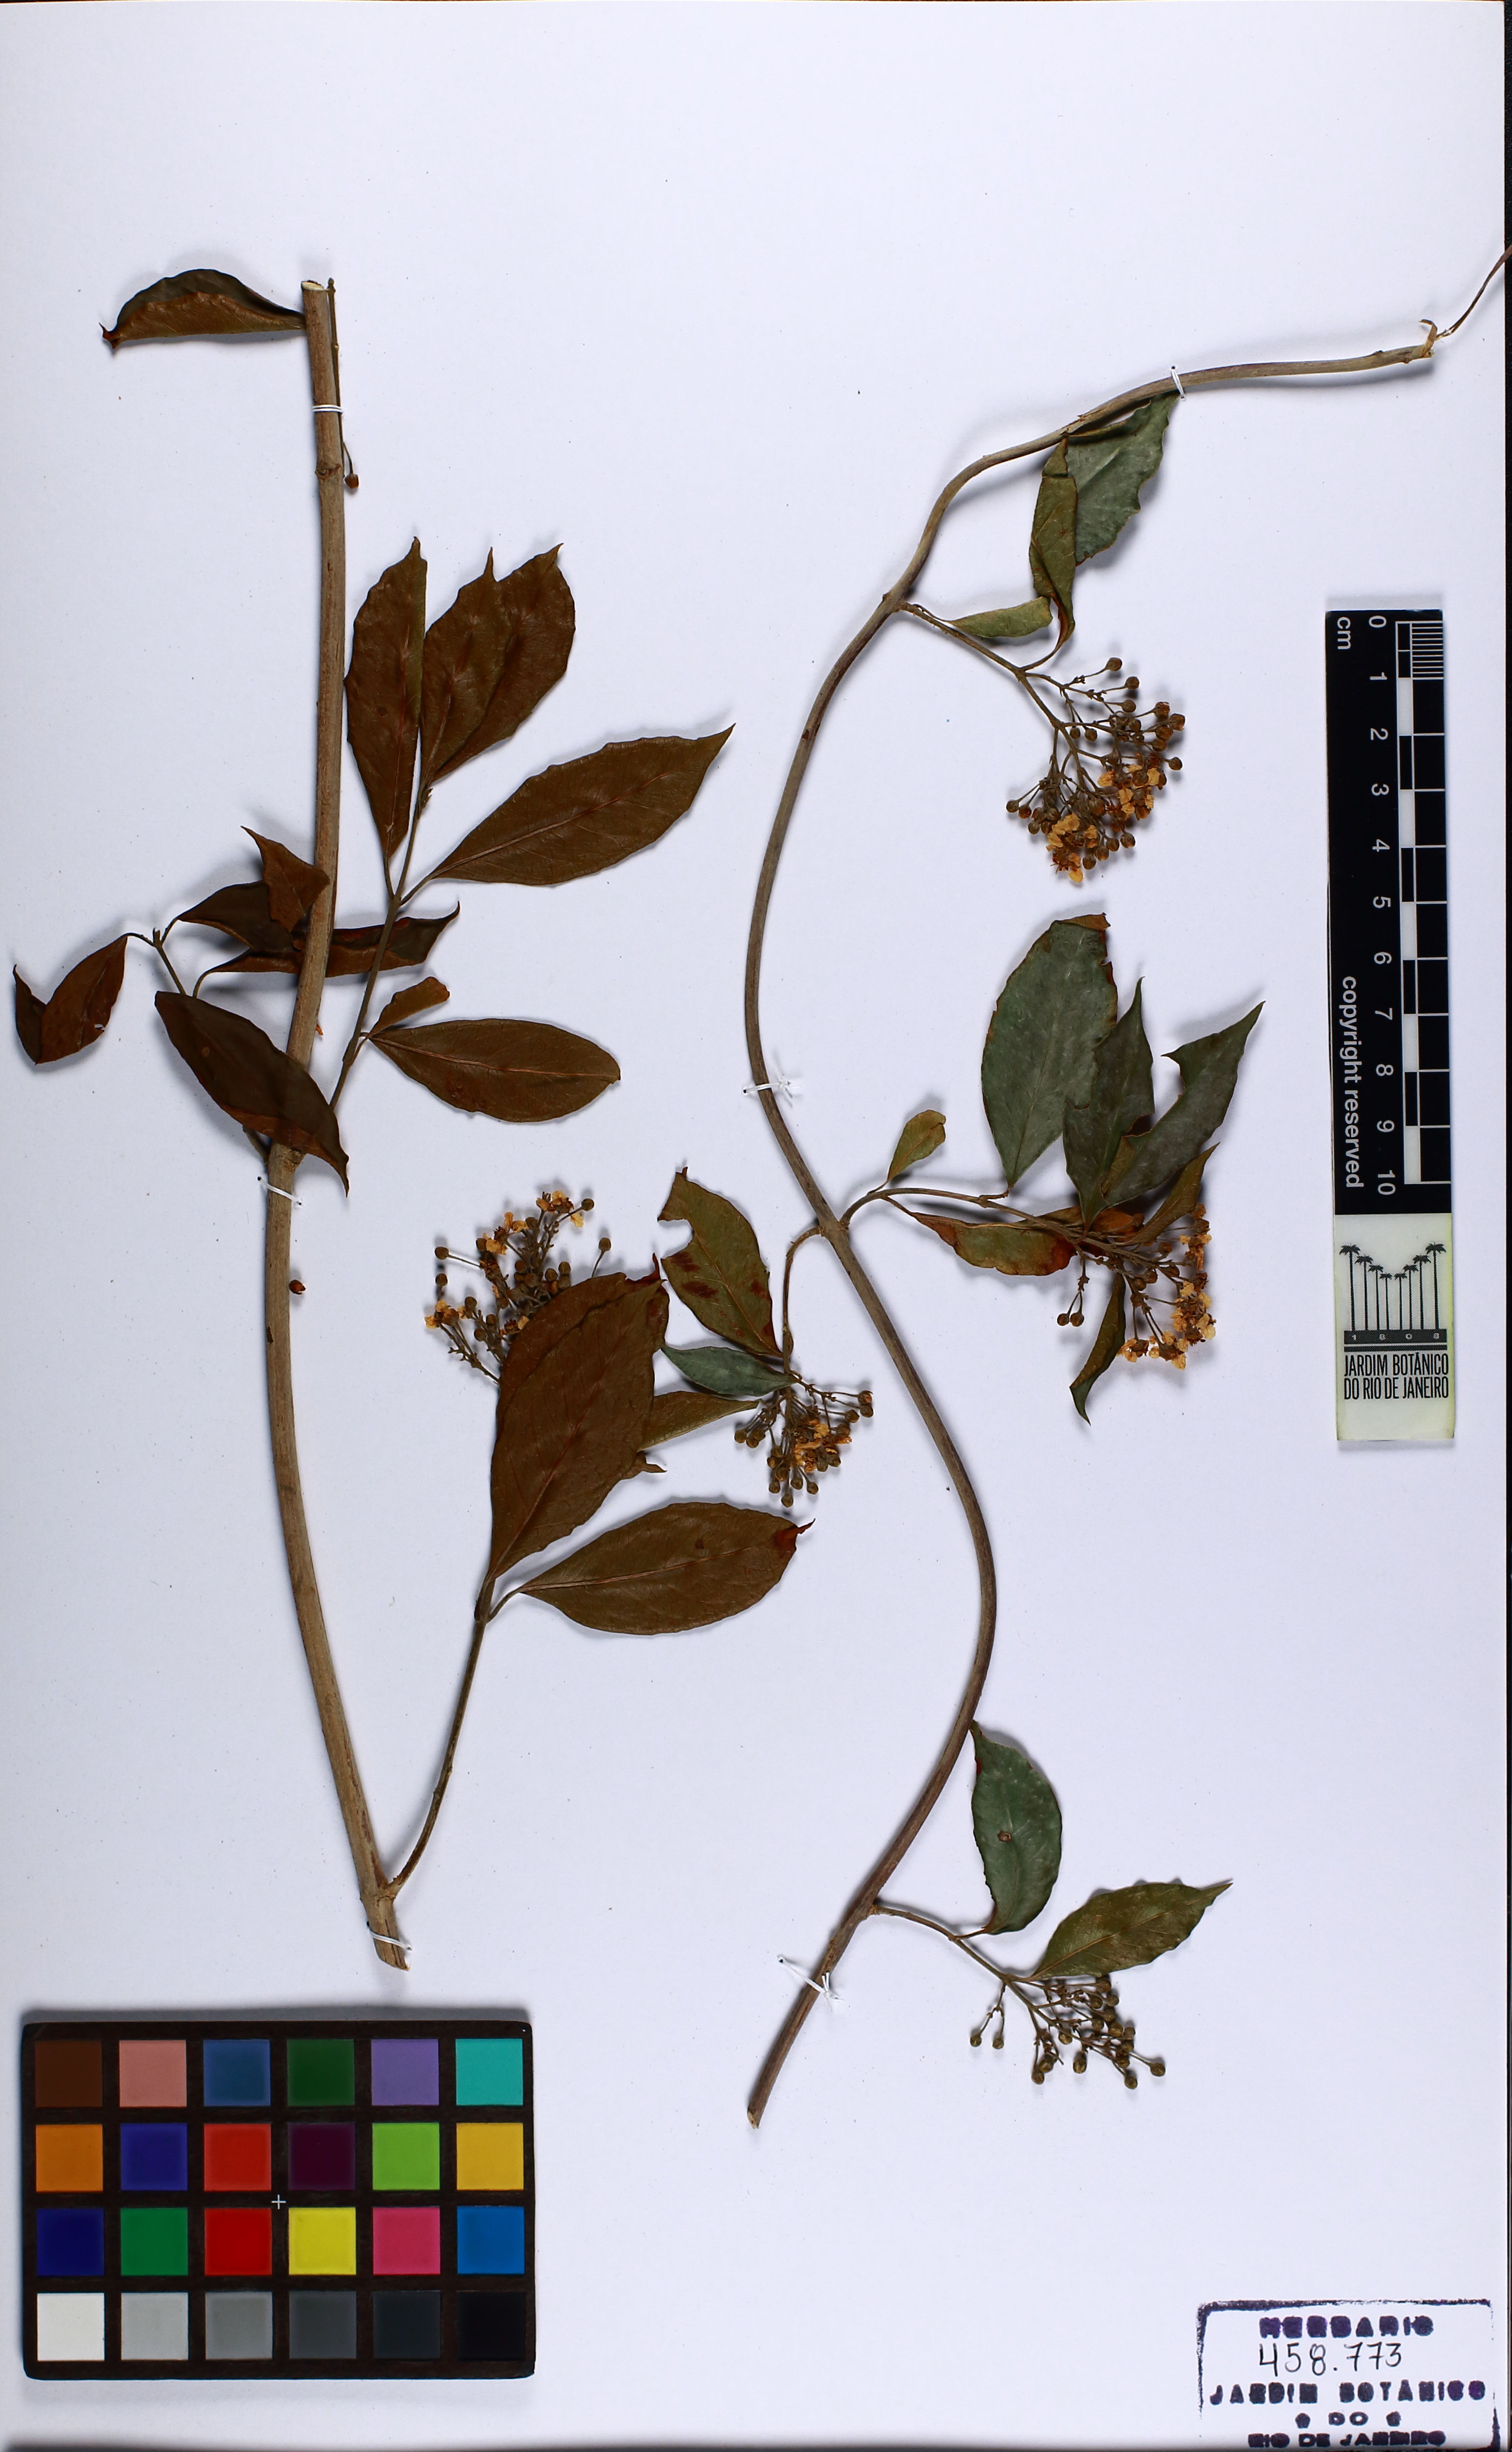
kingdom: Plantae
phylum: Tracheophyta
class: Magnoliopsida
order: Malpighiales
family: Malpighiaceae
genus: Niedenzuella
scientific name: Niedenzuella
